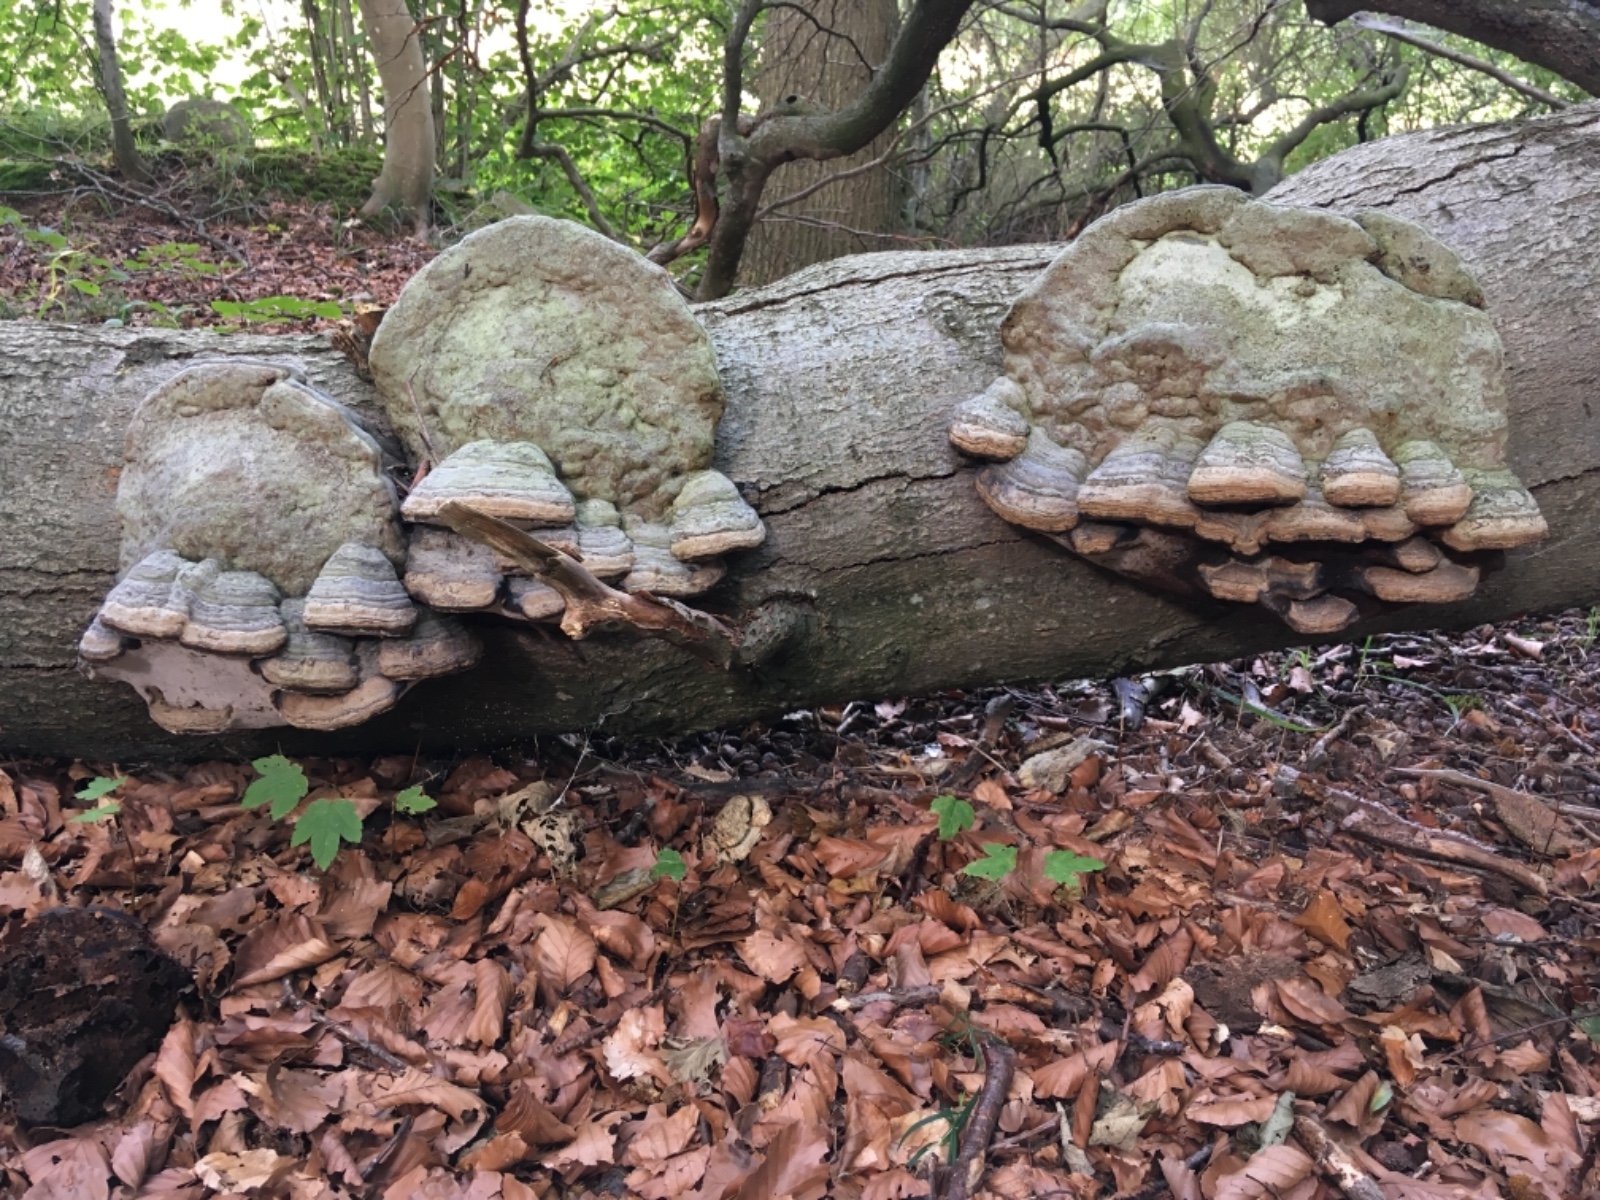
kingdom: Fungi
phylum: Basidiomycota
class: Agaricomycetes
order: Polyporales
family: Polyporaceae
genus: Fomes
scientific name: Fomes fomentarius
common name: tøndersvamp
